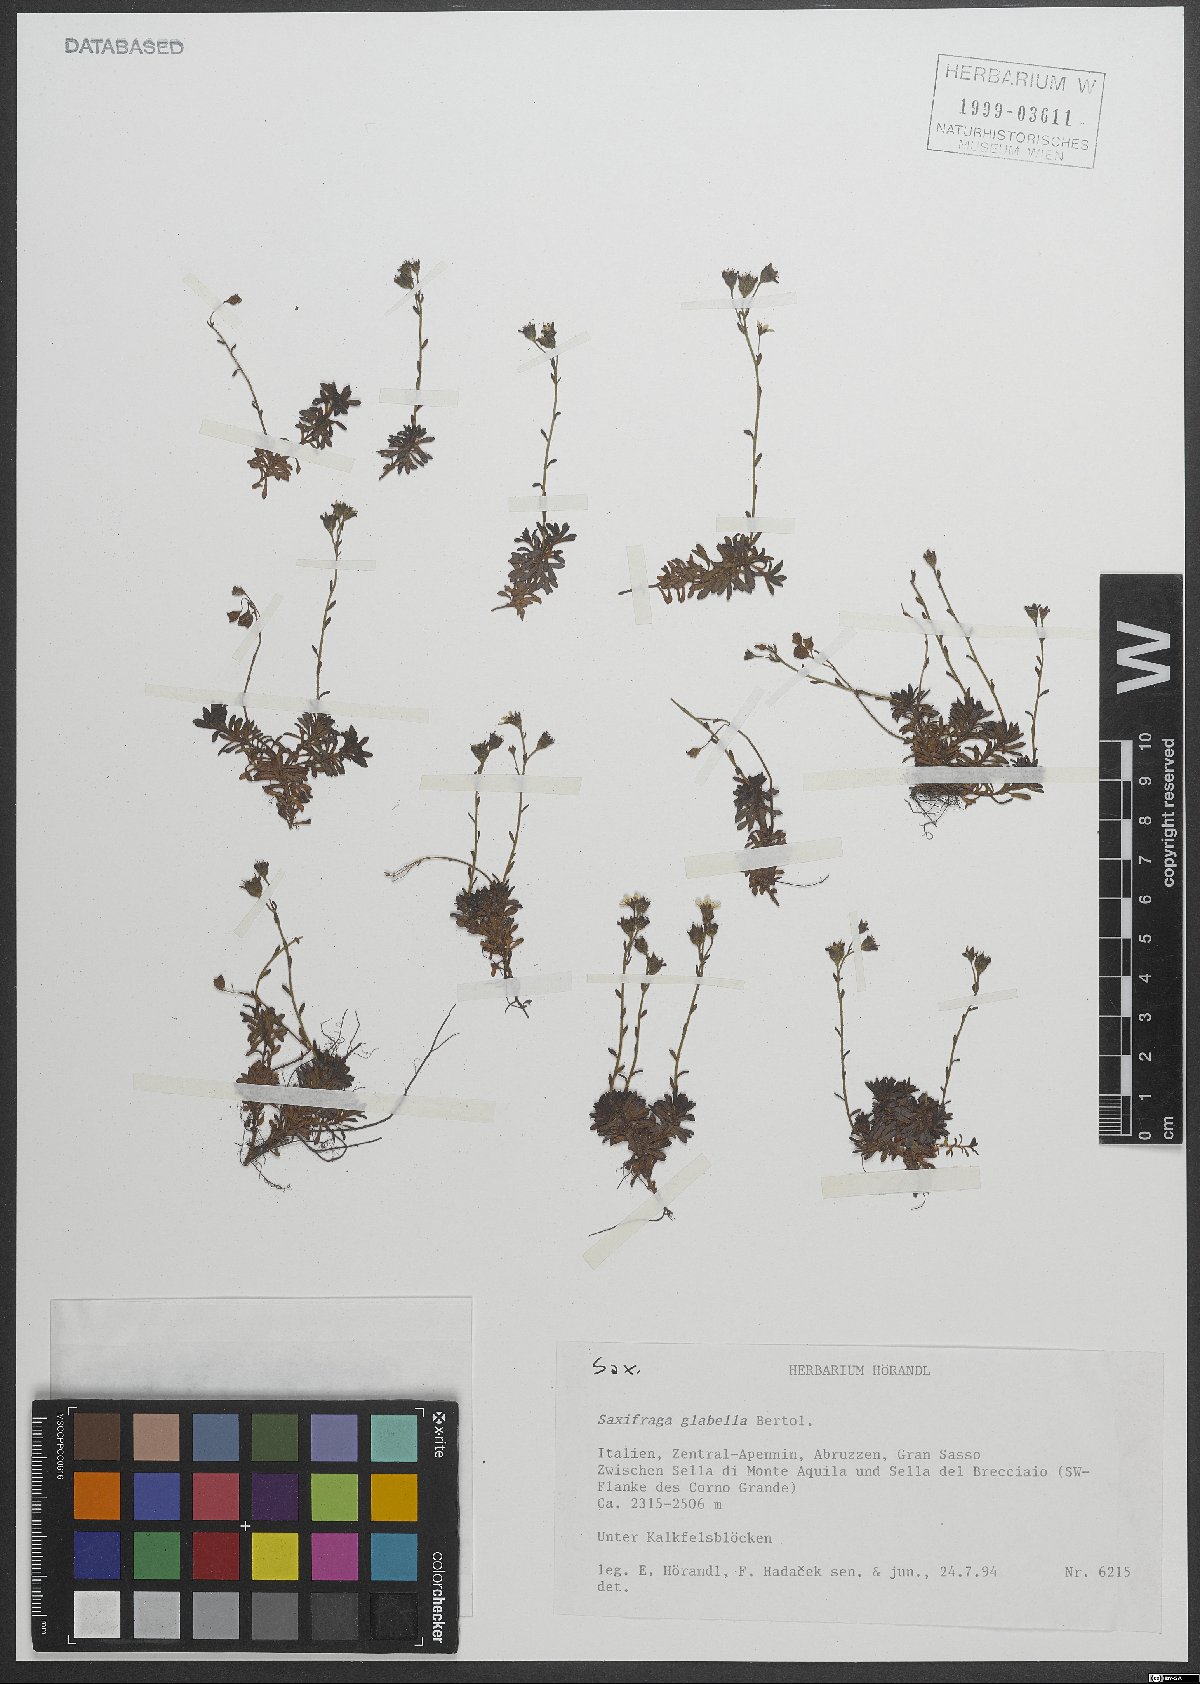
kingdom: Plantae
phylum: Tracheophyta
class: Magnoliopsida
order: Saxifragales
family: Saxifragaceae
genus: Saxifraga
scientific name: Saxifraga glabella
